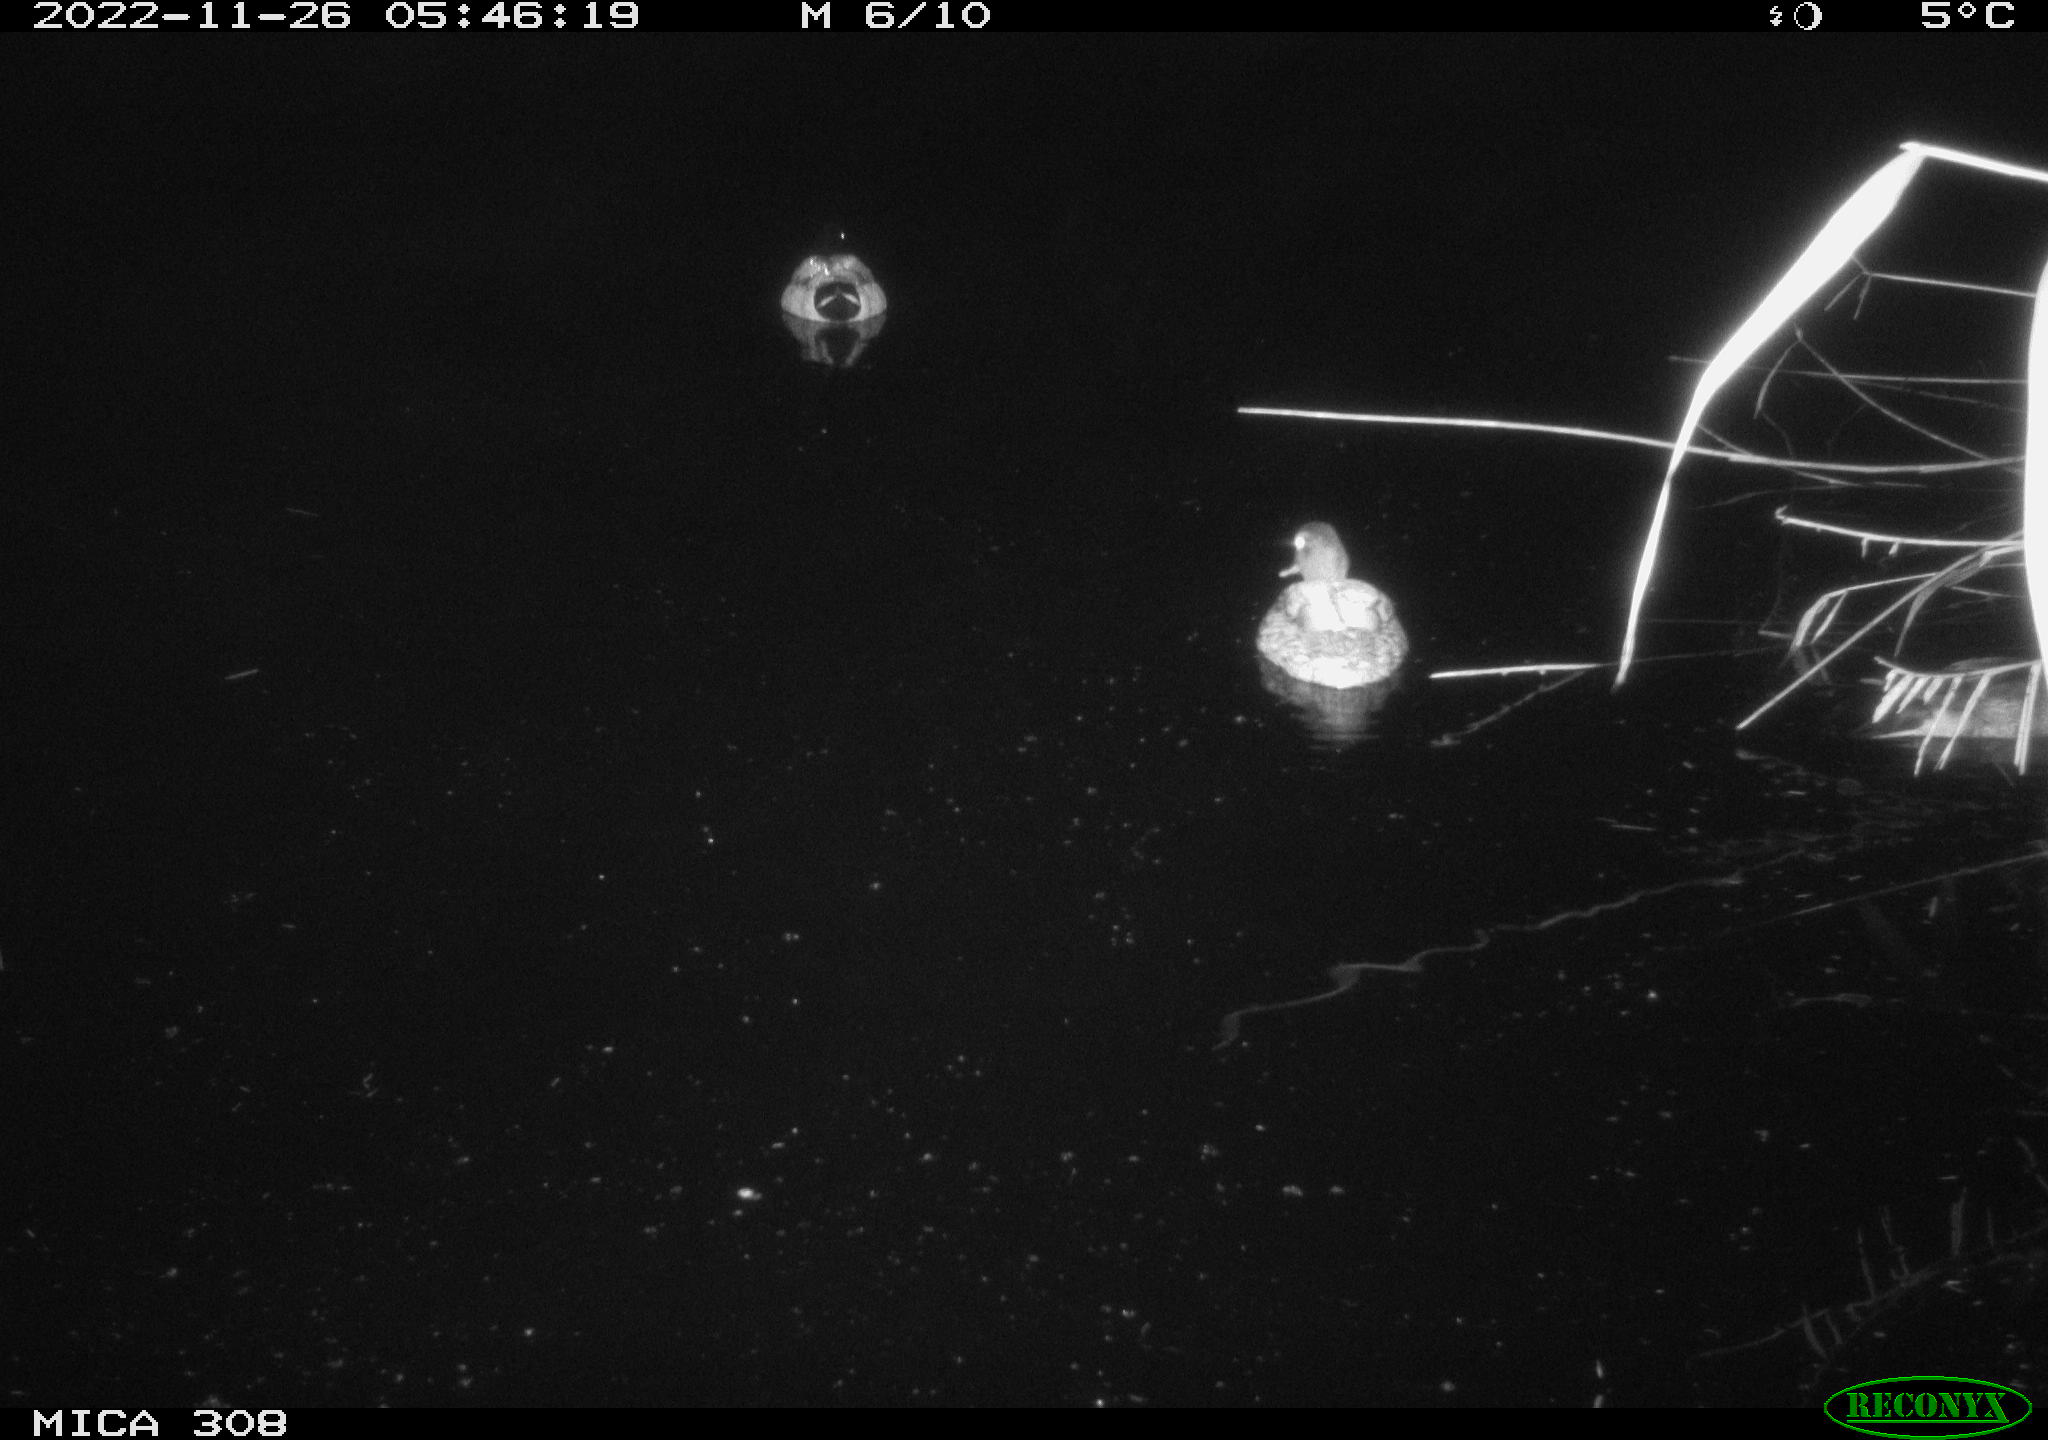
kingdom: Animalia
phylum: Chordata
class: Aves
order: Anseriformes
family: Anatidae
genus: Anas
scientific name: Anas
